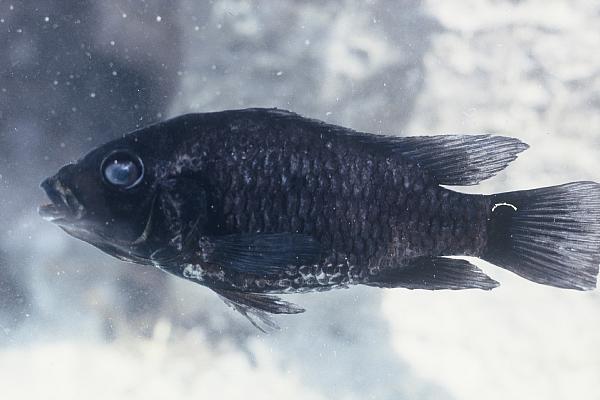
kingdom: Animalia
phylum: Chordata
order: Perciformes
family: Cichlidae
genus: Tilapia
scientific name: Tilapia guinasana
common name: Otjikoto tilapia
